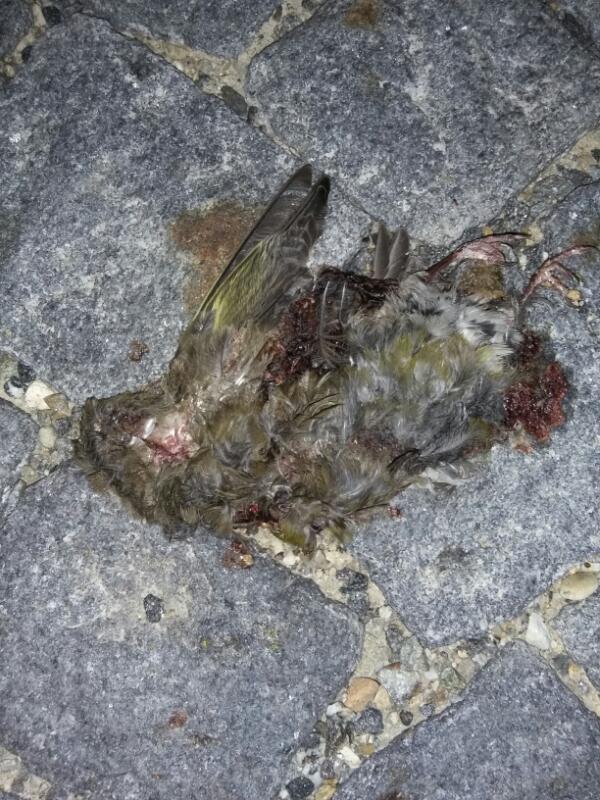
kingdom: Animalia
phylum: Chordata
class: Aves
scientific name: Aves
